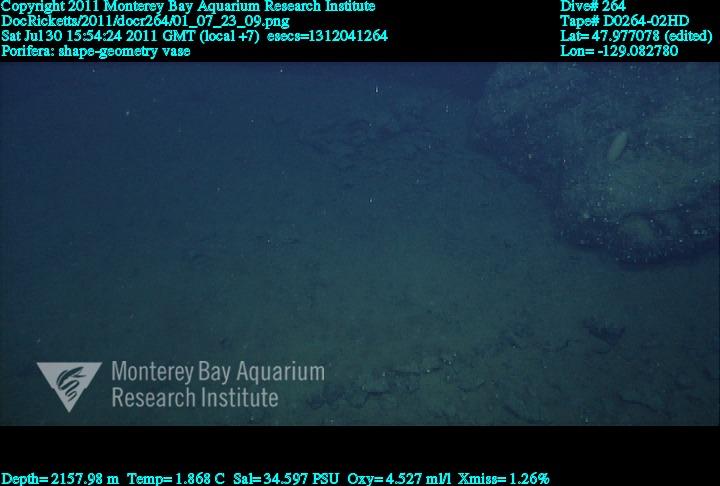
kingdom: Animalia
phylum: Porifera
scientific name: Porifera
